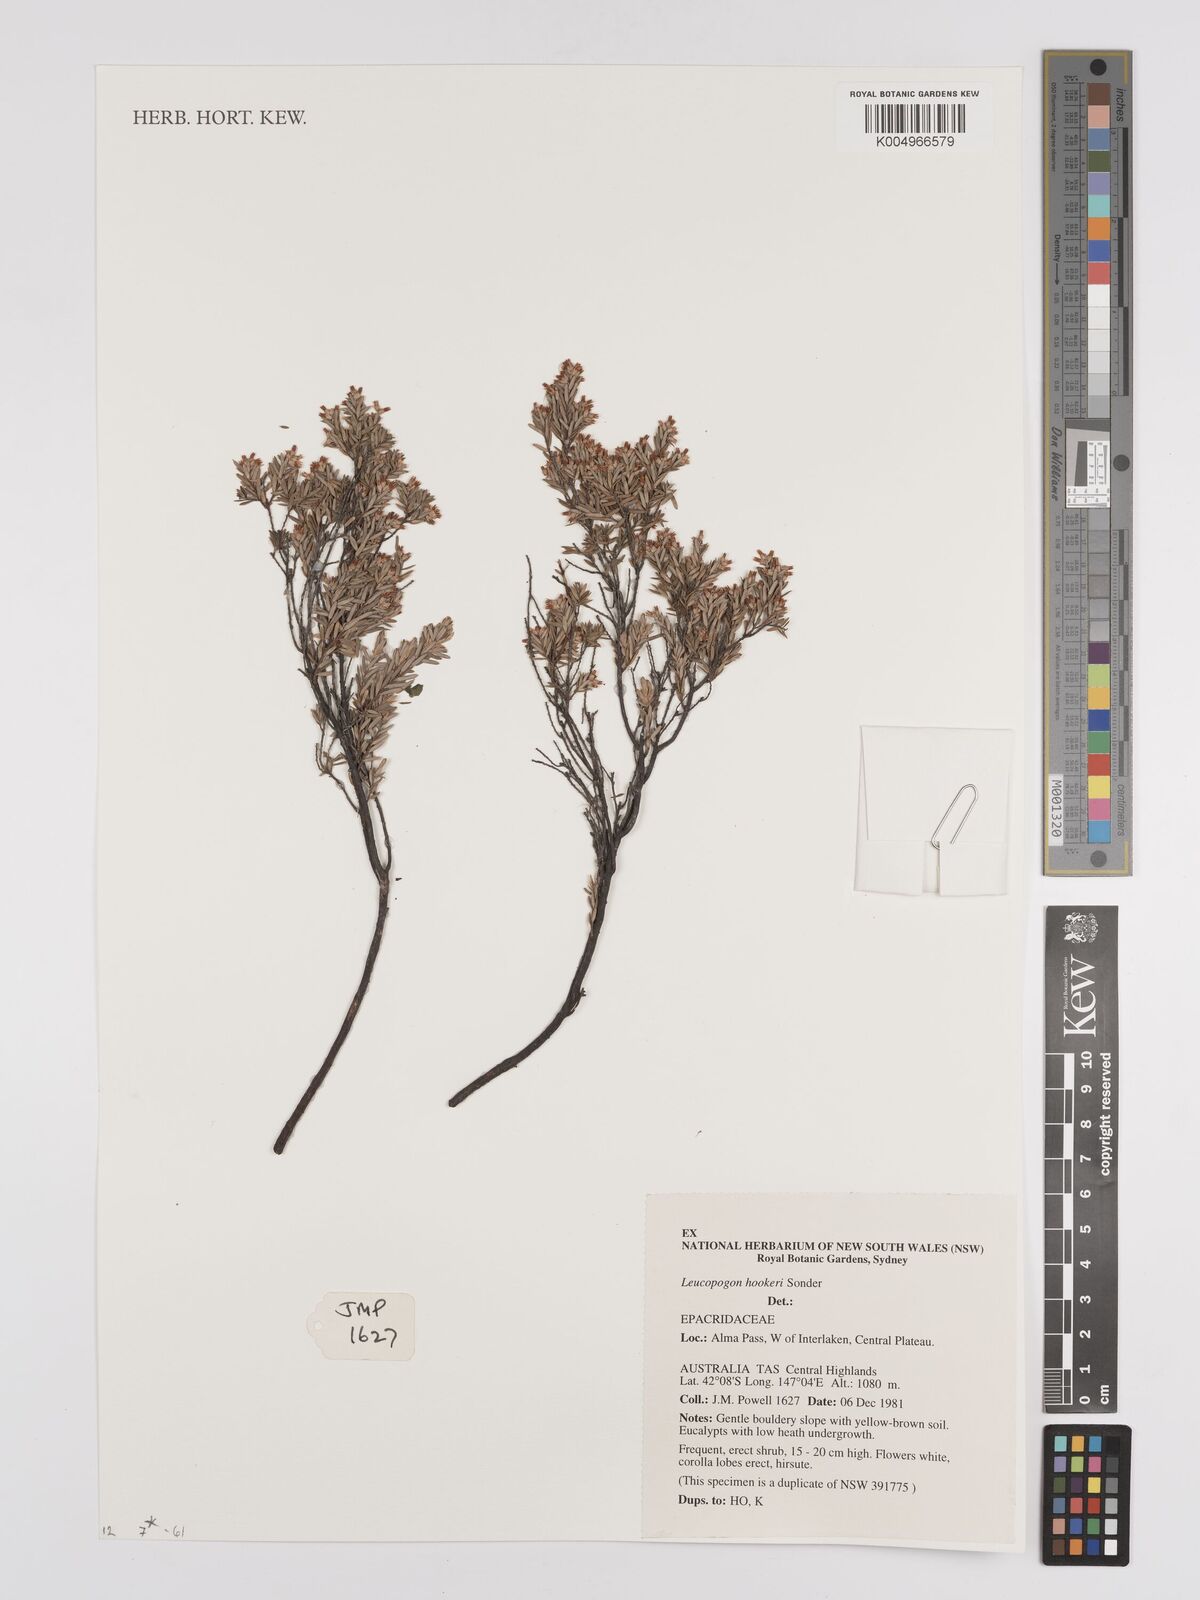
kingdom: Plantae
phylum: Tracheophyta
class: Magnoliopsida
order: Ericales
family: Ericaceae
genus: Acrothamnus
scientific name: Acrothamnus hookeri
